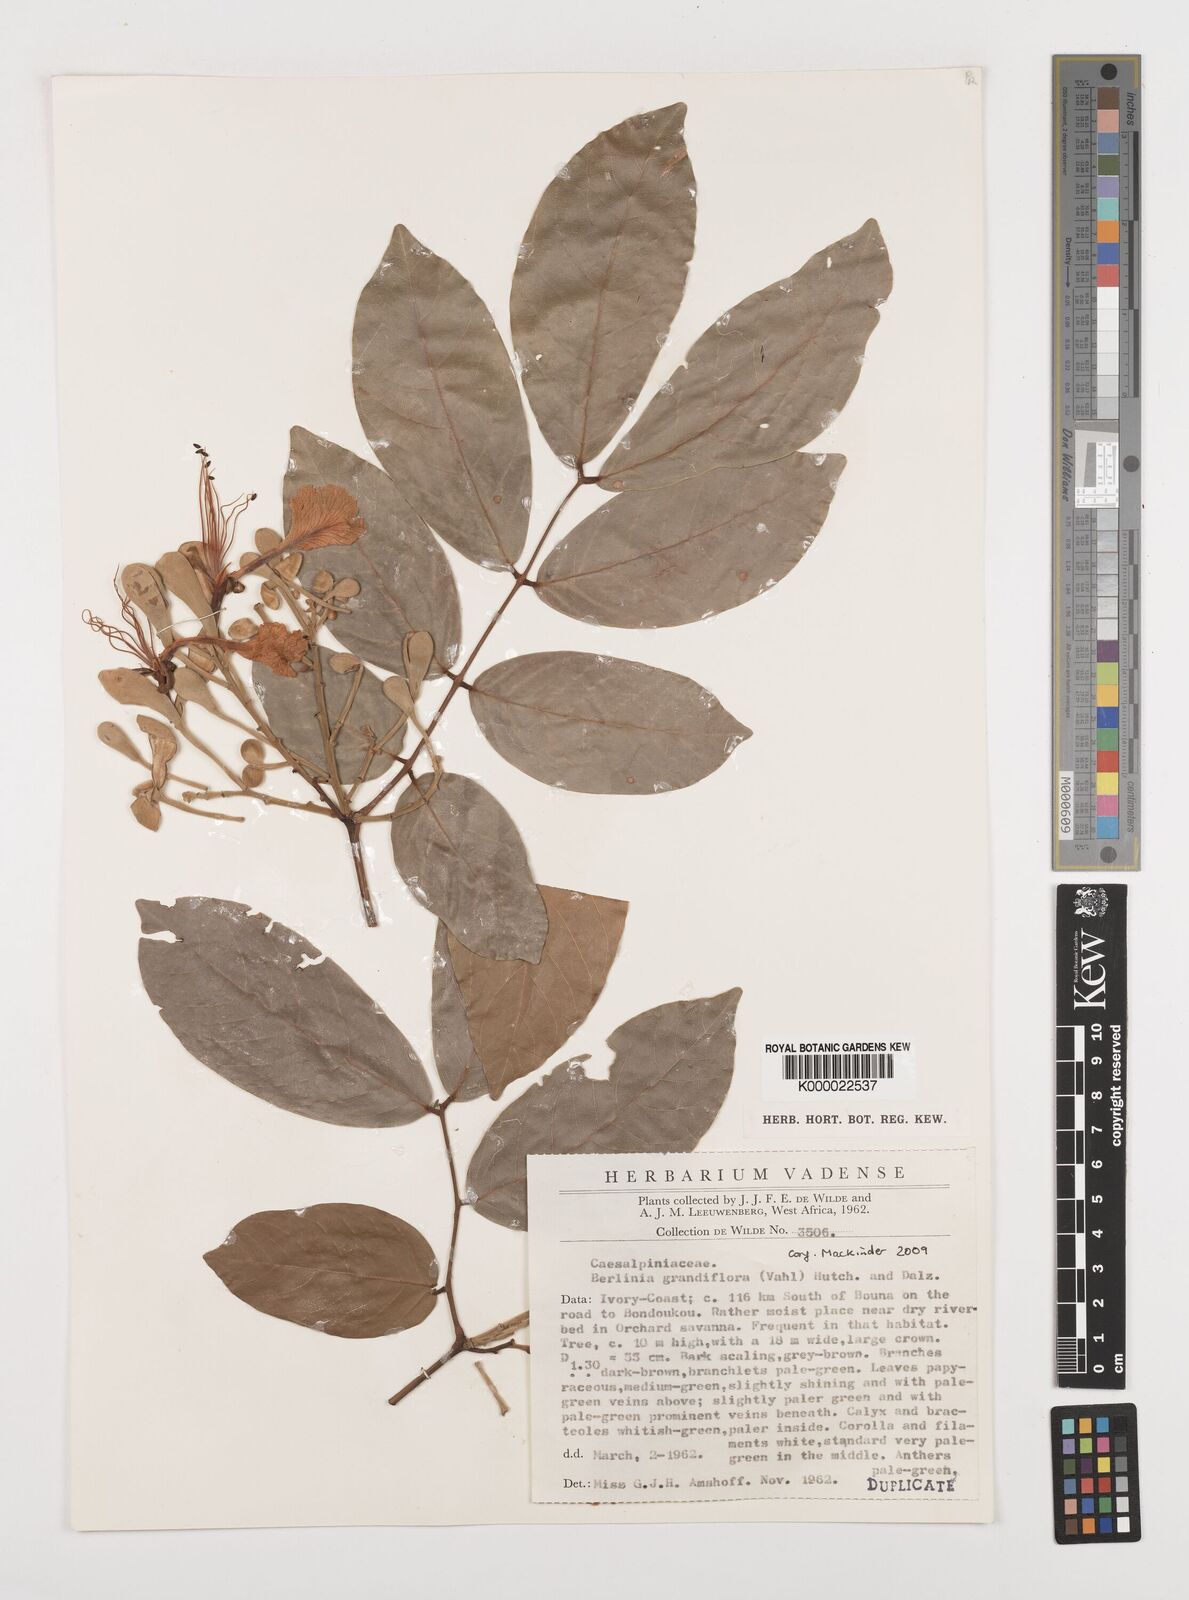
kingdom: Plantae
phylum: Tracheophyta
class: Magnoliopsida
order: Fabales
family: Fabaceae
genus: Berlinia
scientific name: Berlinia grandiflora
